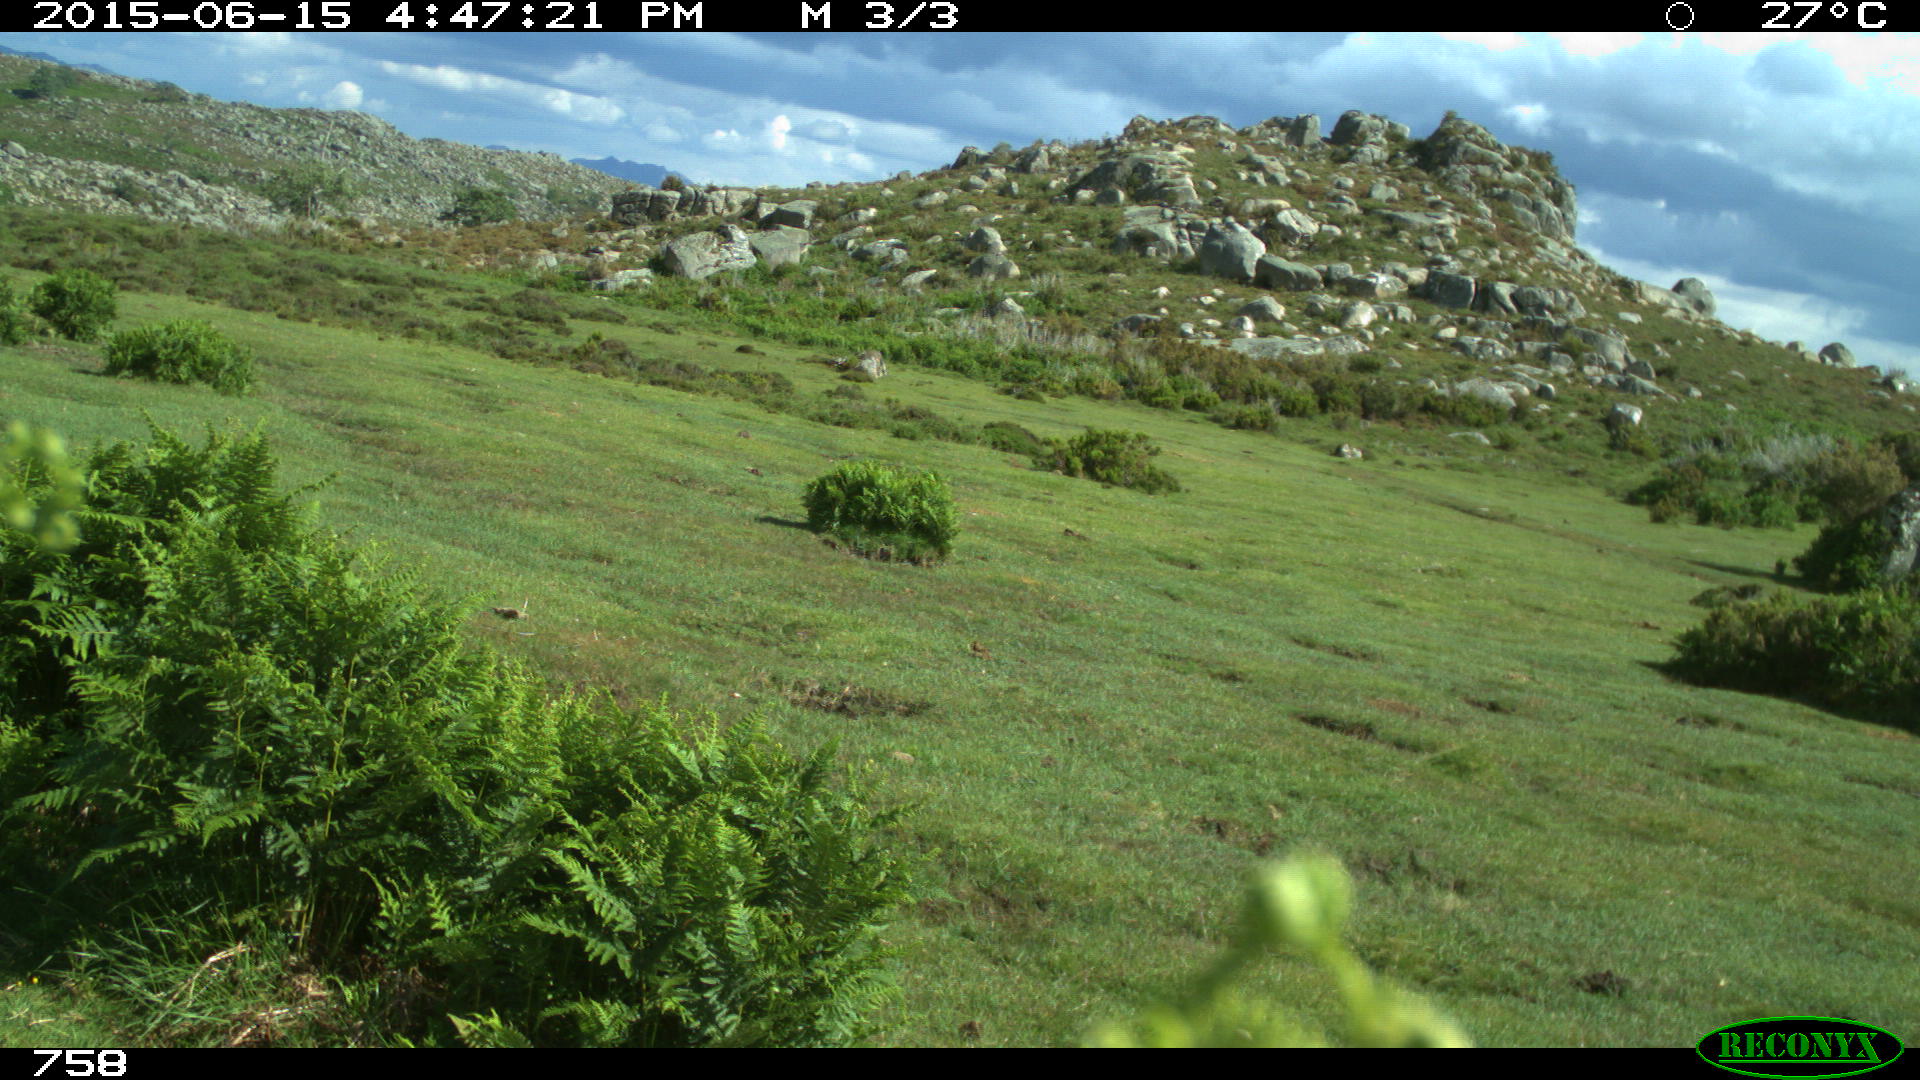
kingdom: Animalia
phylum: Chordata
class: Mammalia
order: Artiodactyla
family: Bovidae
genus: Bos
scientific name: Bos taurus
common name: Domesticated cattle
